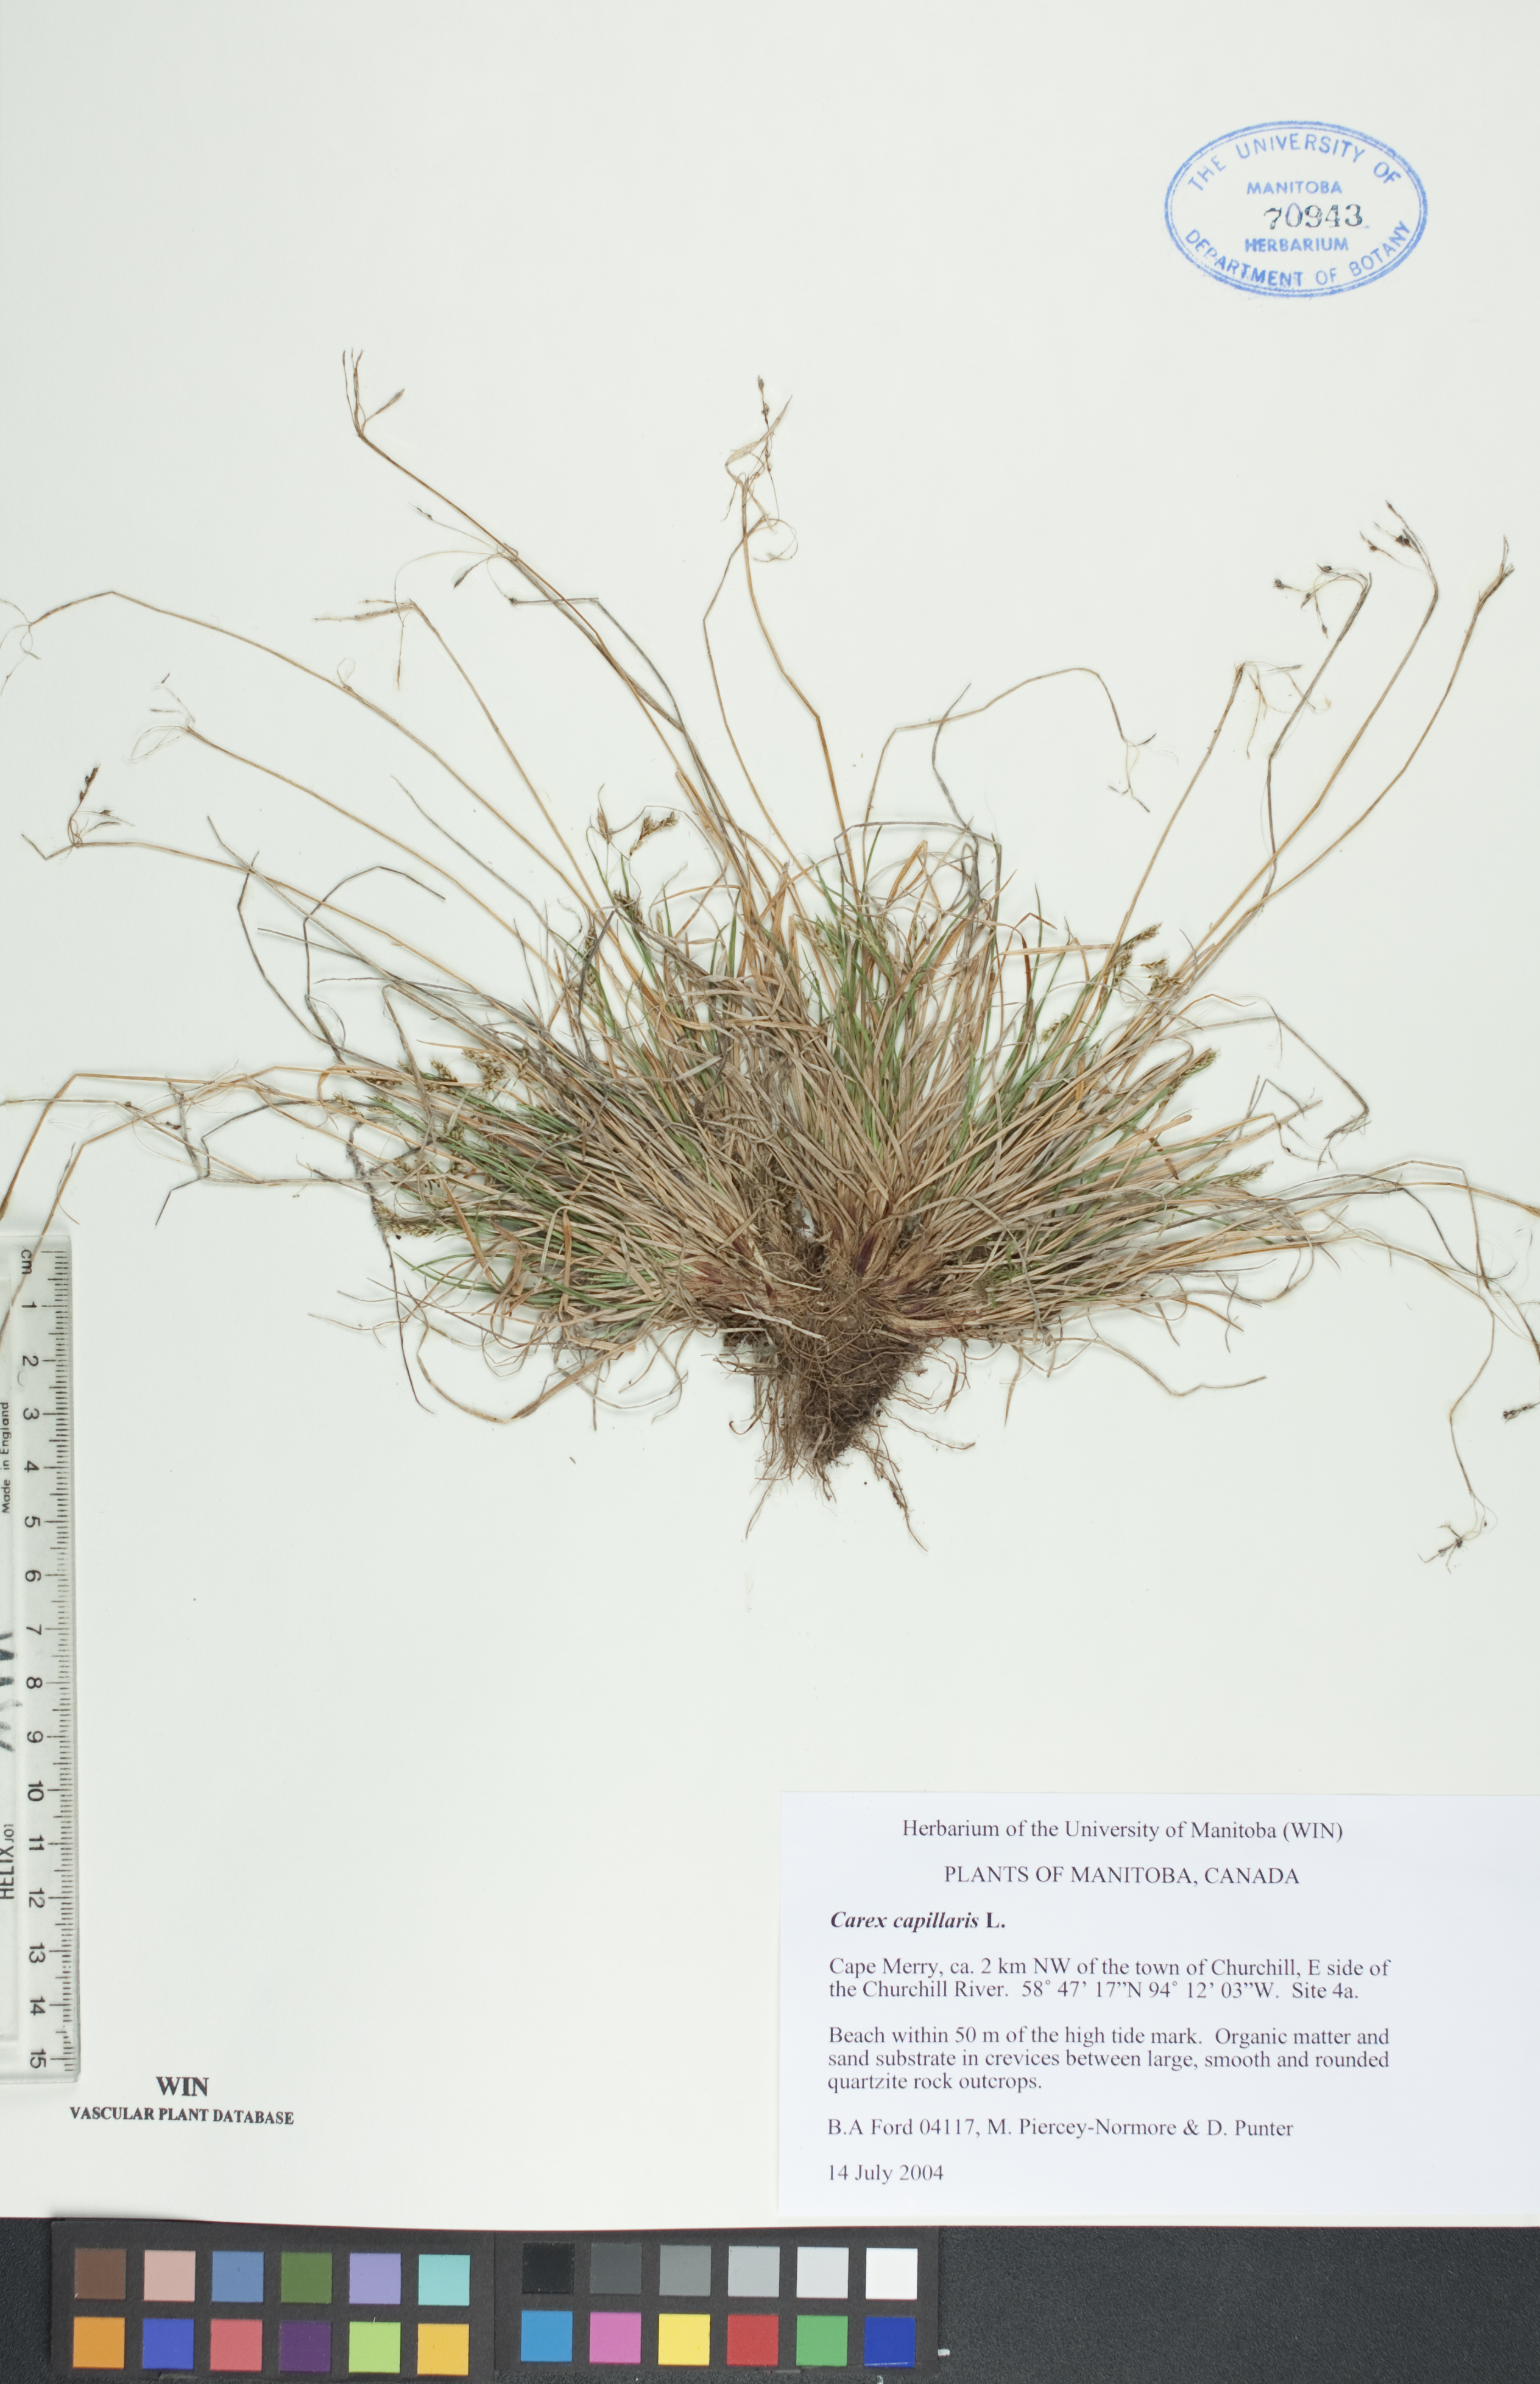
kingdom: Plantae
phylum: Tracheophyta
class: Liliopsida
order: Poales
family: Cyperaceae
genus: Carex
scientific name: Carex capillaris
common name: Hair sedge
